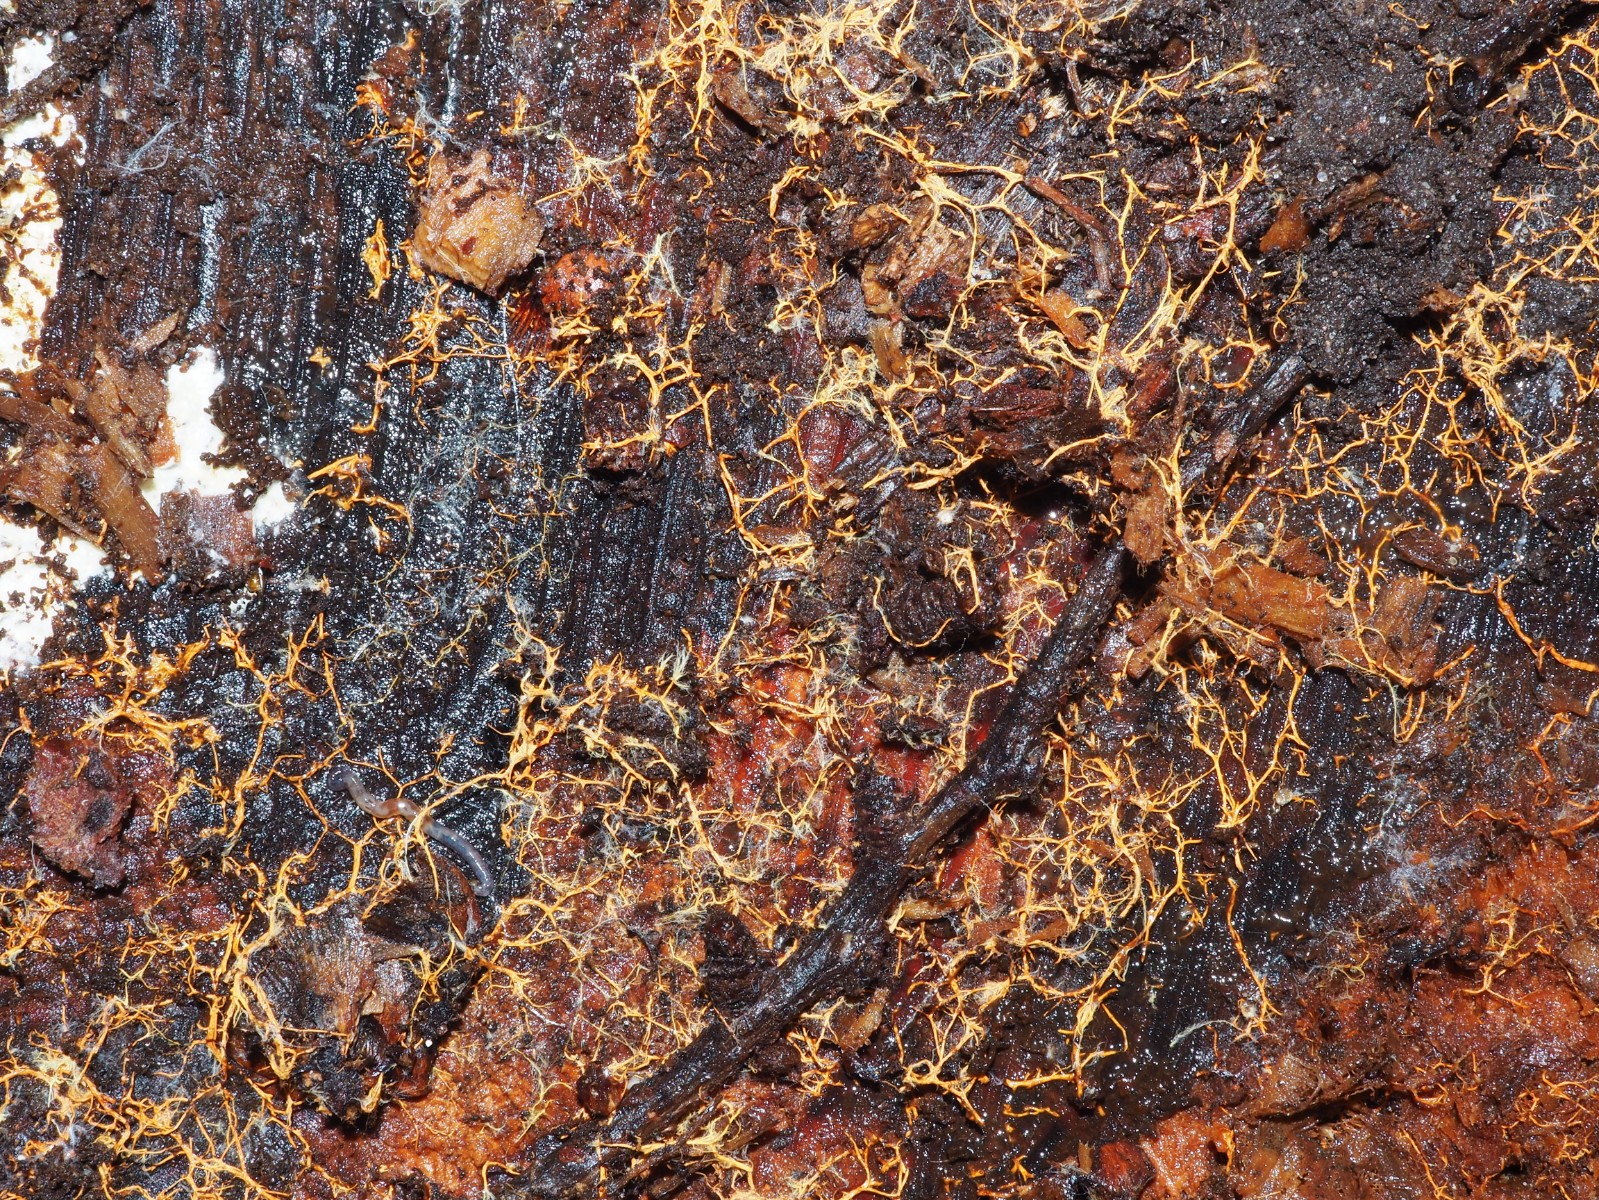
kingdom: Fungi
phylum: Basidiomycota
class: Agaricomycetes
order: Atheliales
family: Atheliaceae
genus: Leptosporomyces
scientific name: Leptosporomyces fuscostratus
